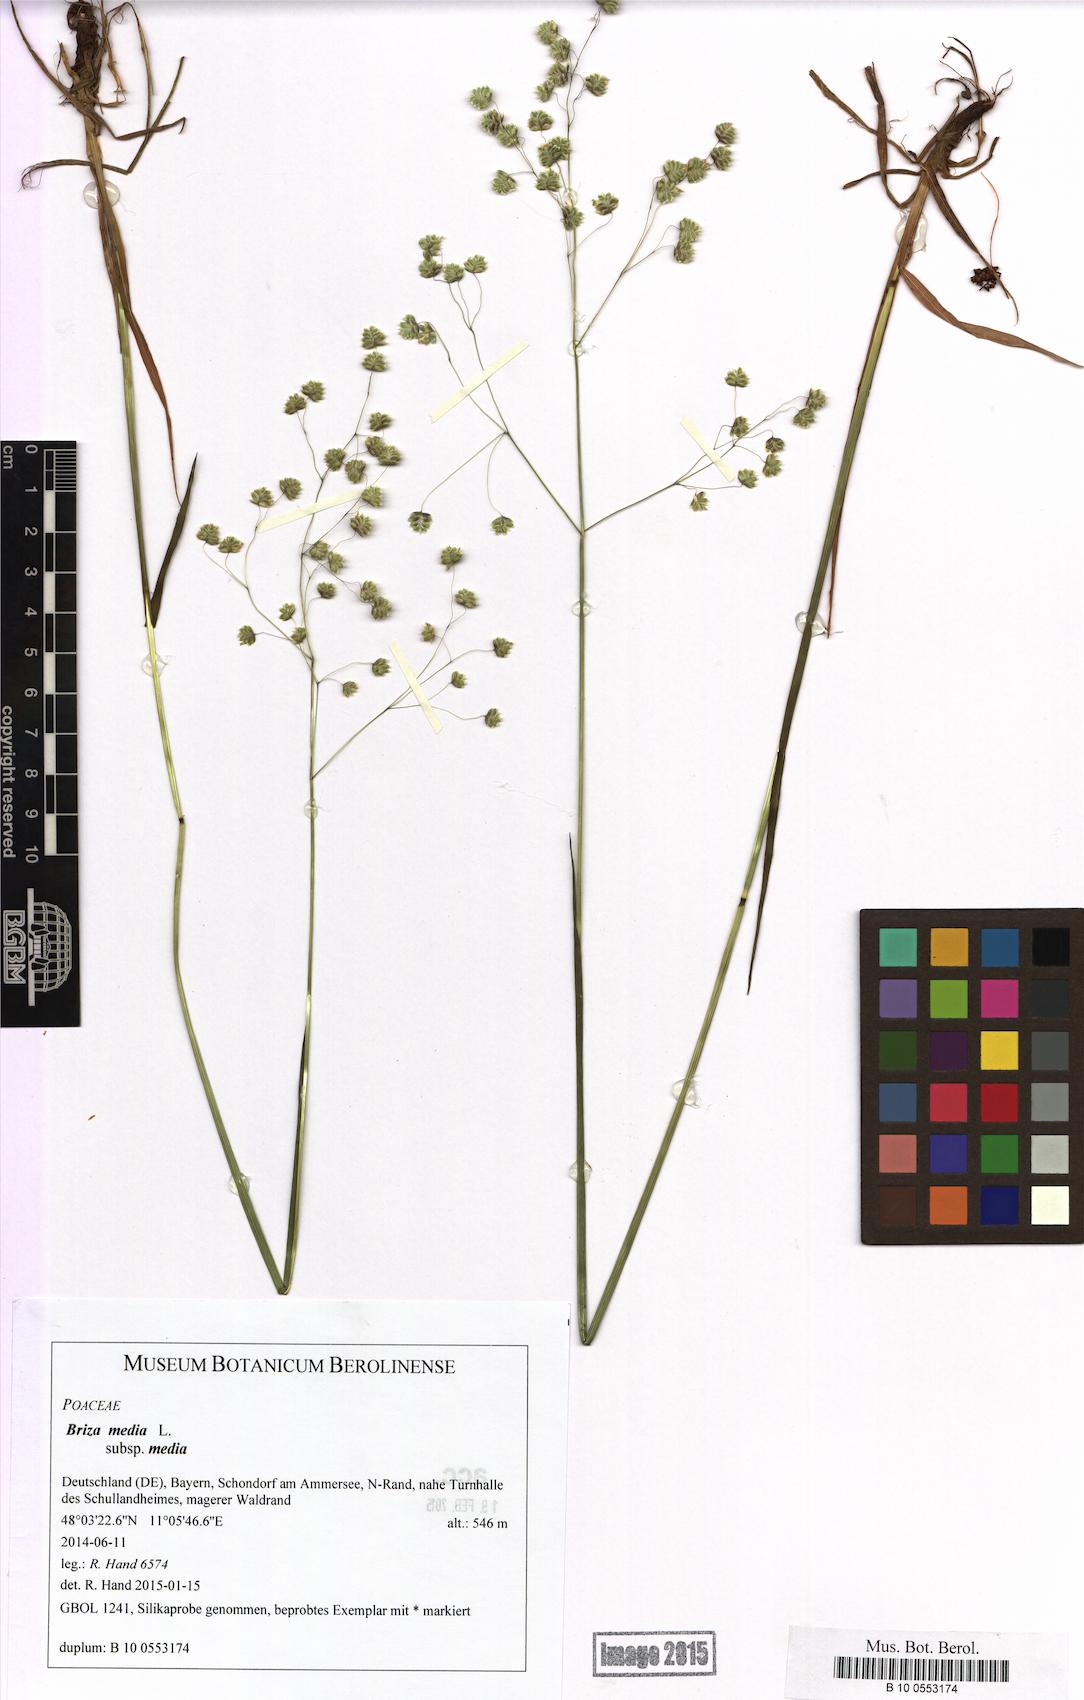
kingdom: Plantae
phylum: Tracheophyta
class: Liliopsida
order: Poales
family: Poaceae
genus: Briza
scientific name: Briza media
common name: Quaking grass
